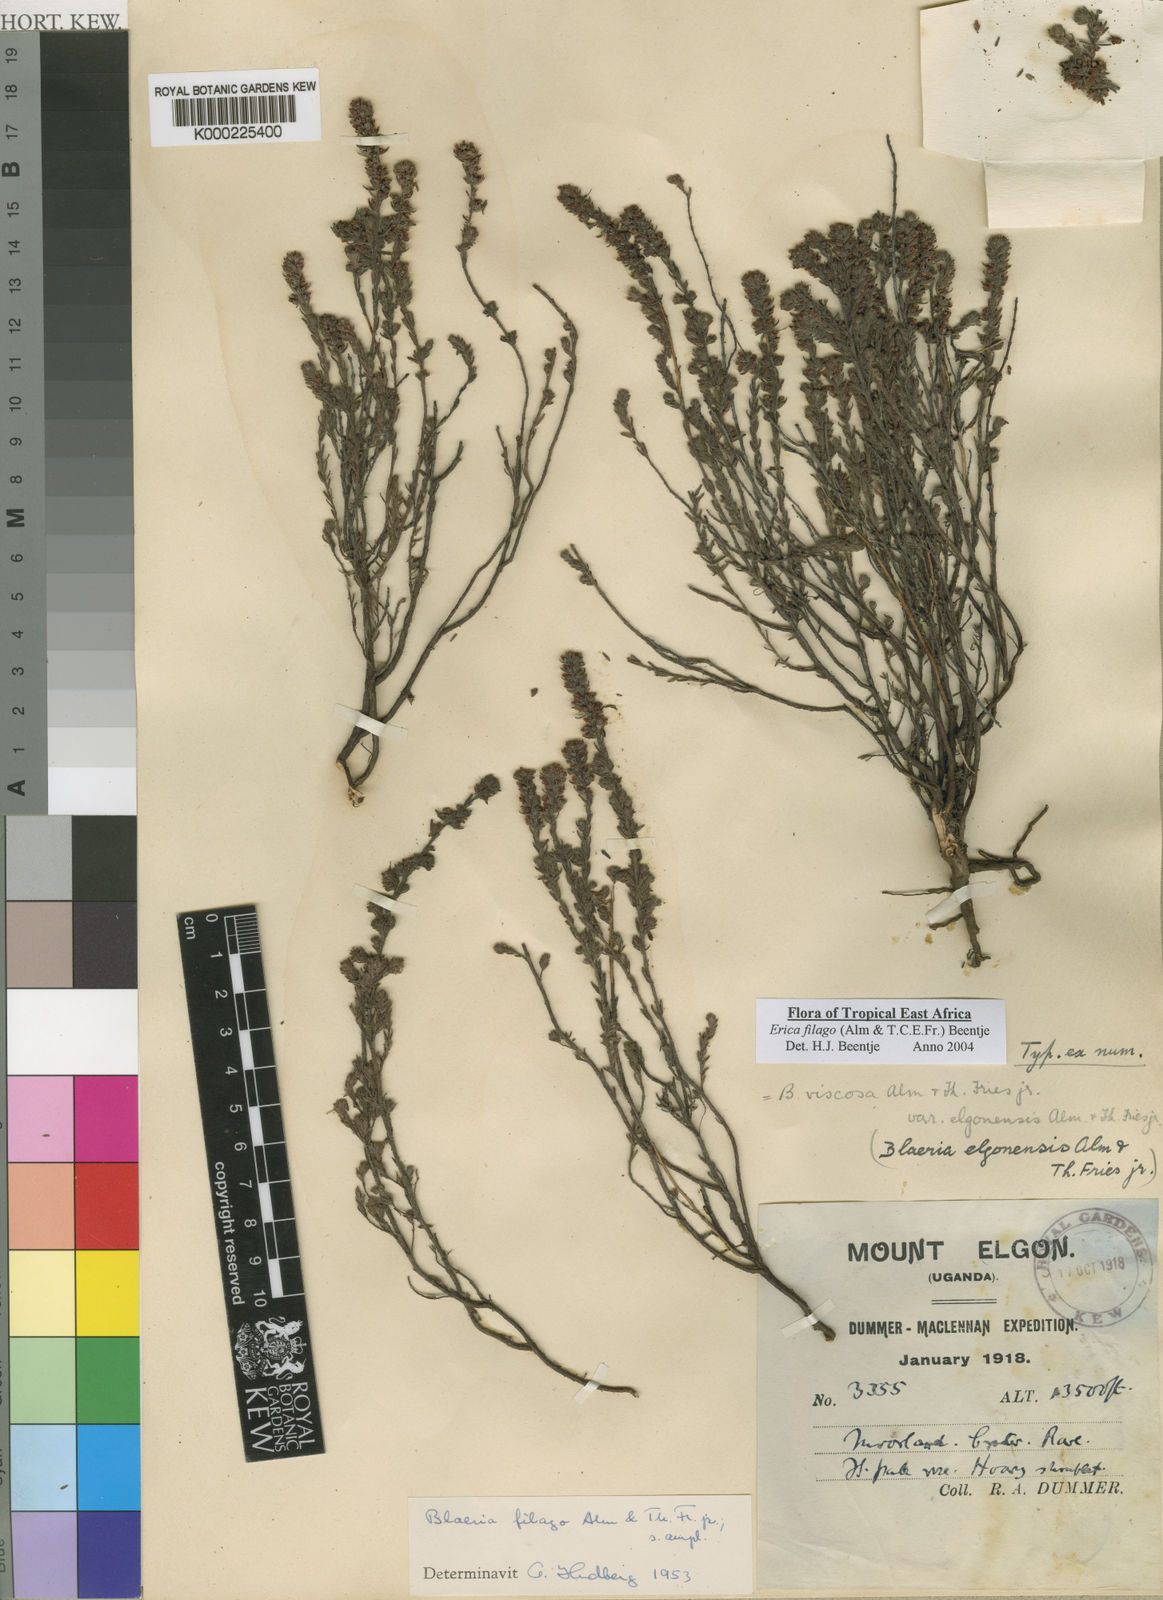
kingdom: Plantae
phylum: Tracheophyta
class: Magnoliopsida
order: Ericales
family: Ericaceae
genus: Erica
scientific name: Erica filago
